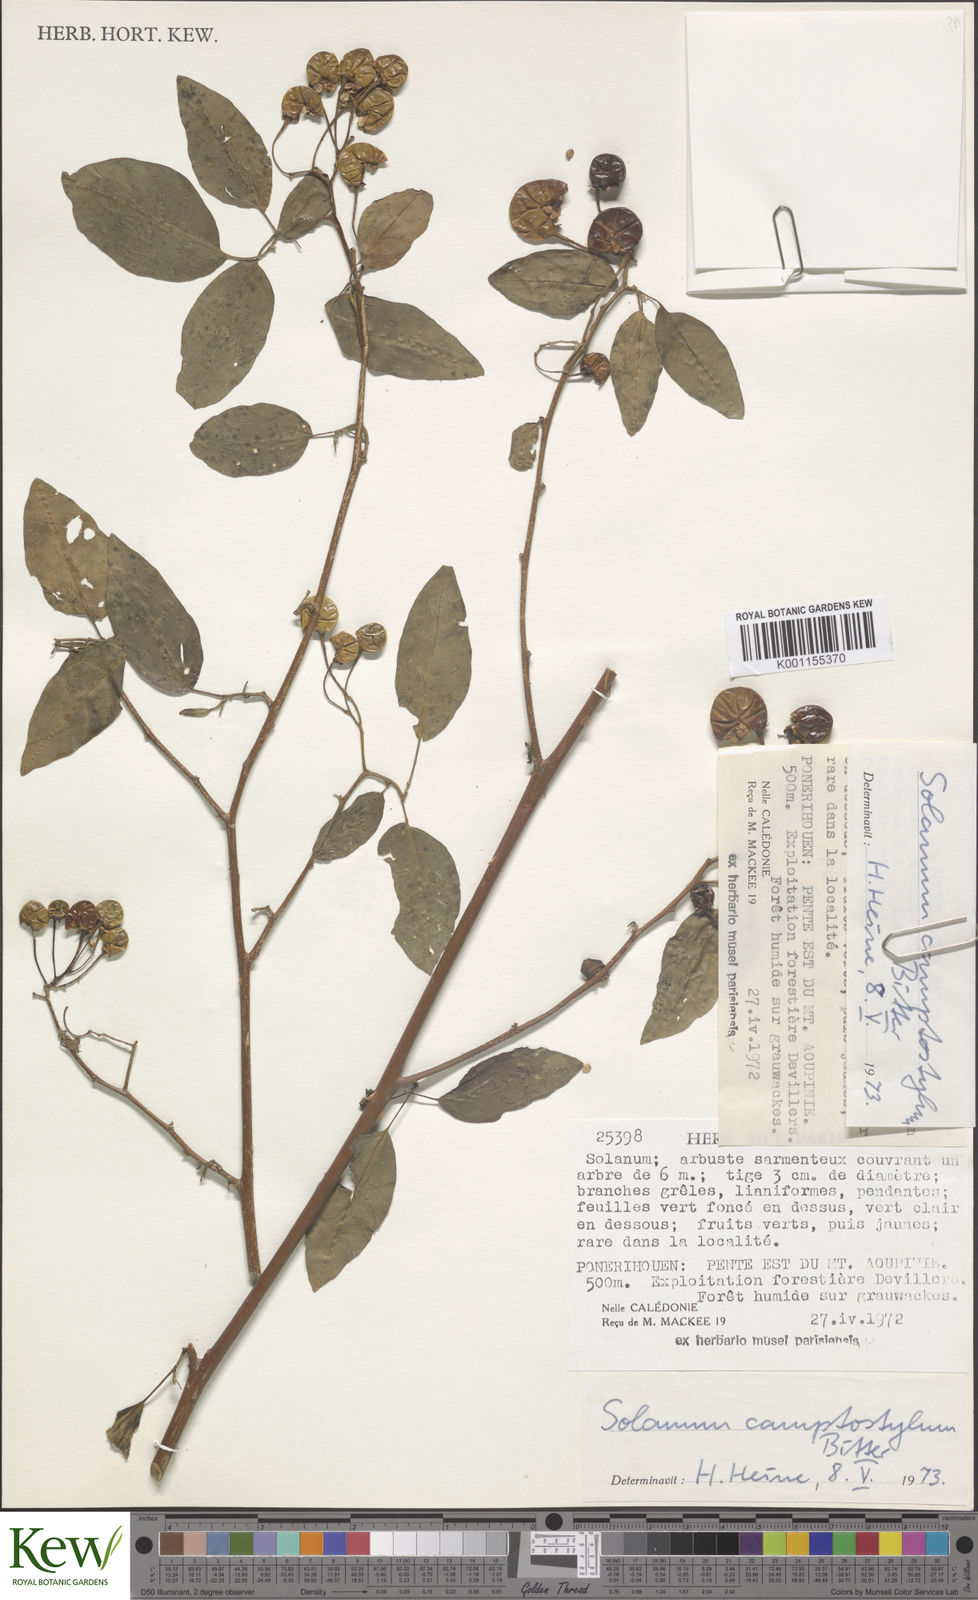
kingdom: Plantae
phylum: Tracheophyta
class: Magnoliopsida
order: Solanales
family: Solanaceae
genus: Solanum
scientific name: Solanum camptostylum
